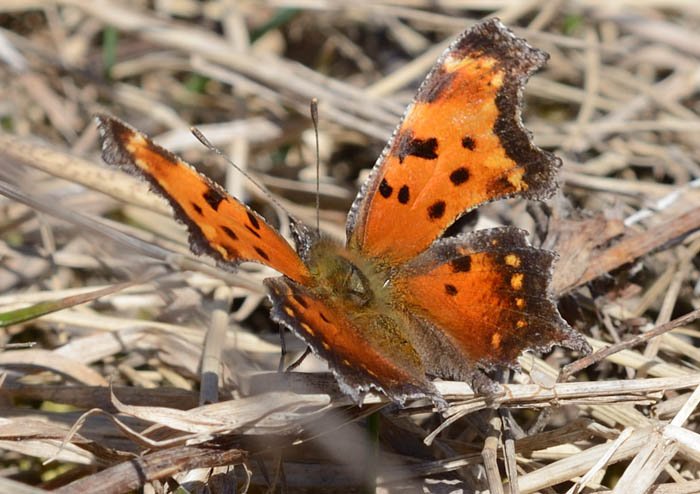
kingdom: Animalia
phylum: Arthropoda
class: Insecta
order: Lepidoptera
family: Nymphalidae
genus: Polygonia
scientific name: Polygonia progne
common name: Gray Comma
